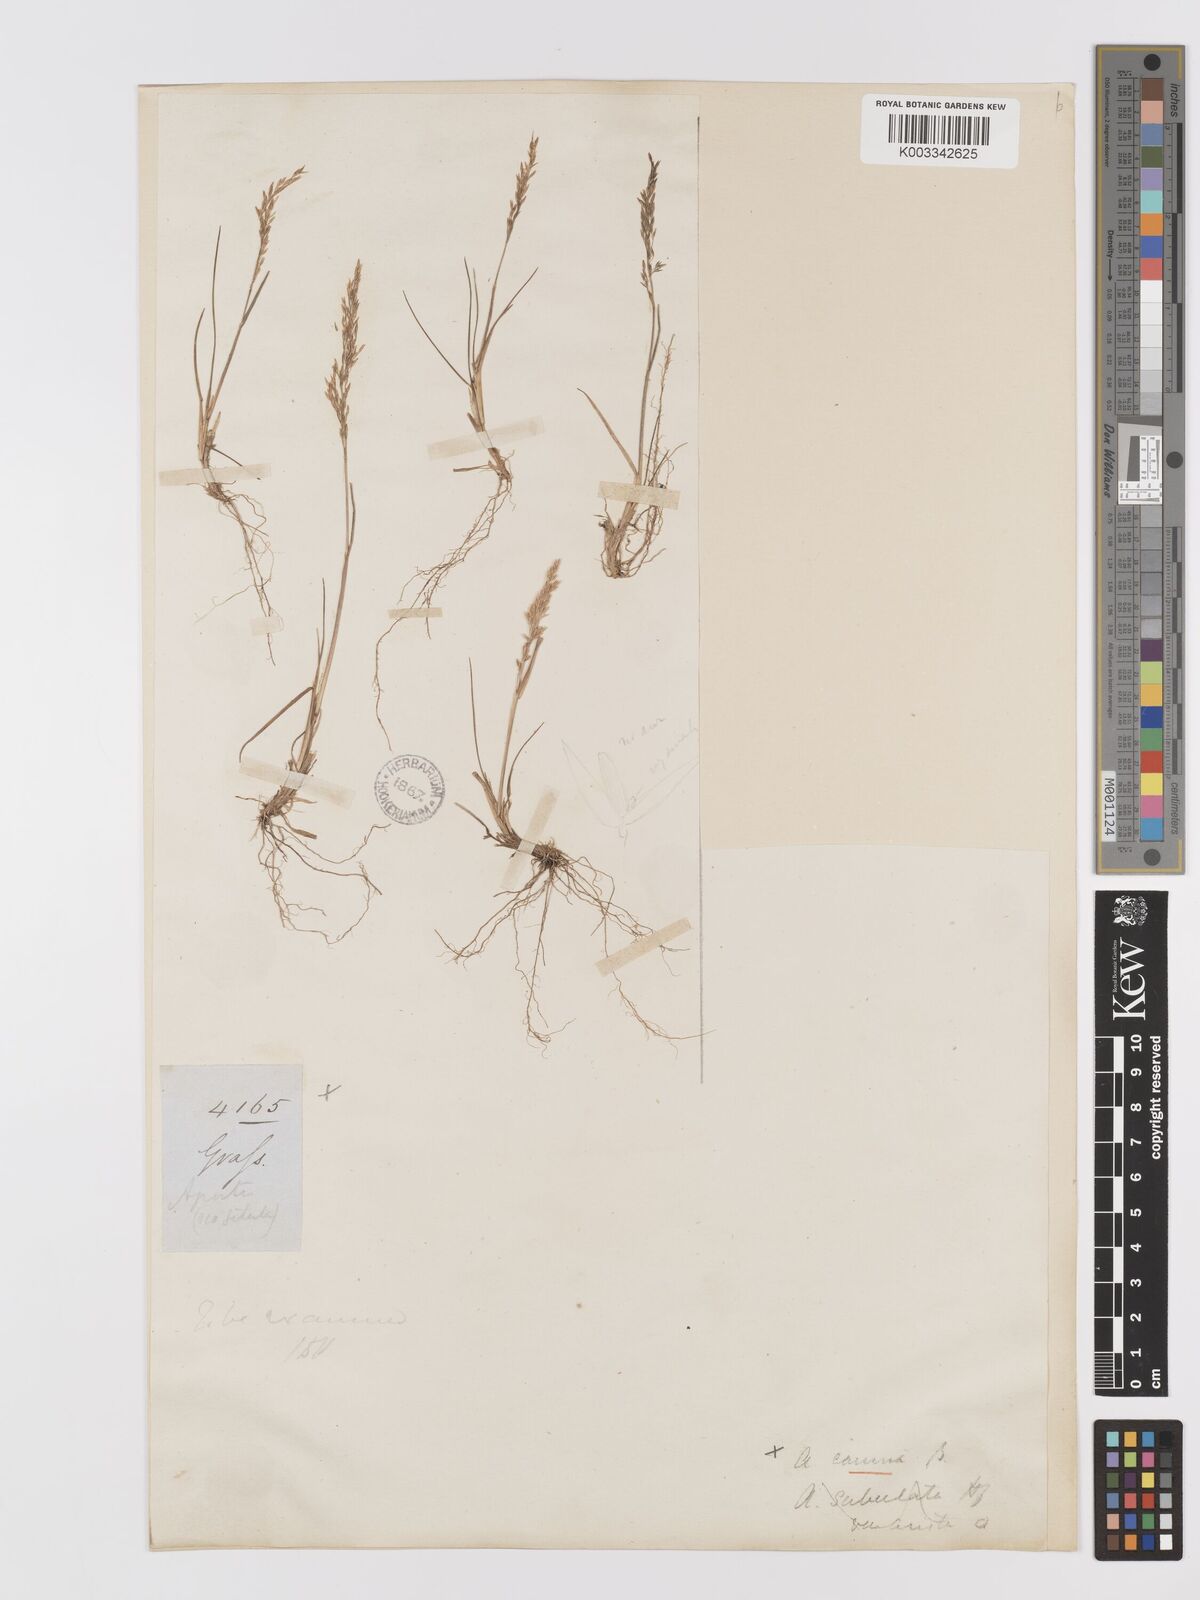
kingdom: Plantae
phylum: Tracheophyta
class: Liliopsida
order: Poales
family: Poaceae
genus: Agrostis
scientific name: Agrostis
